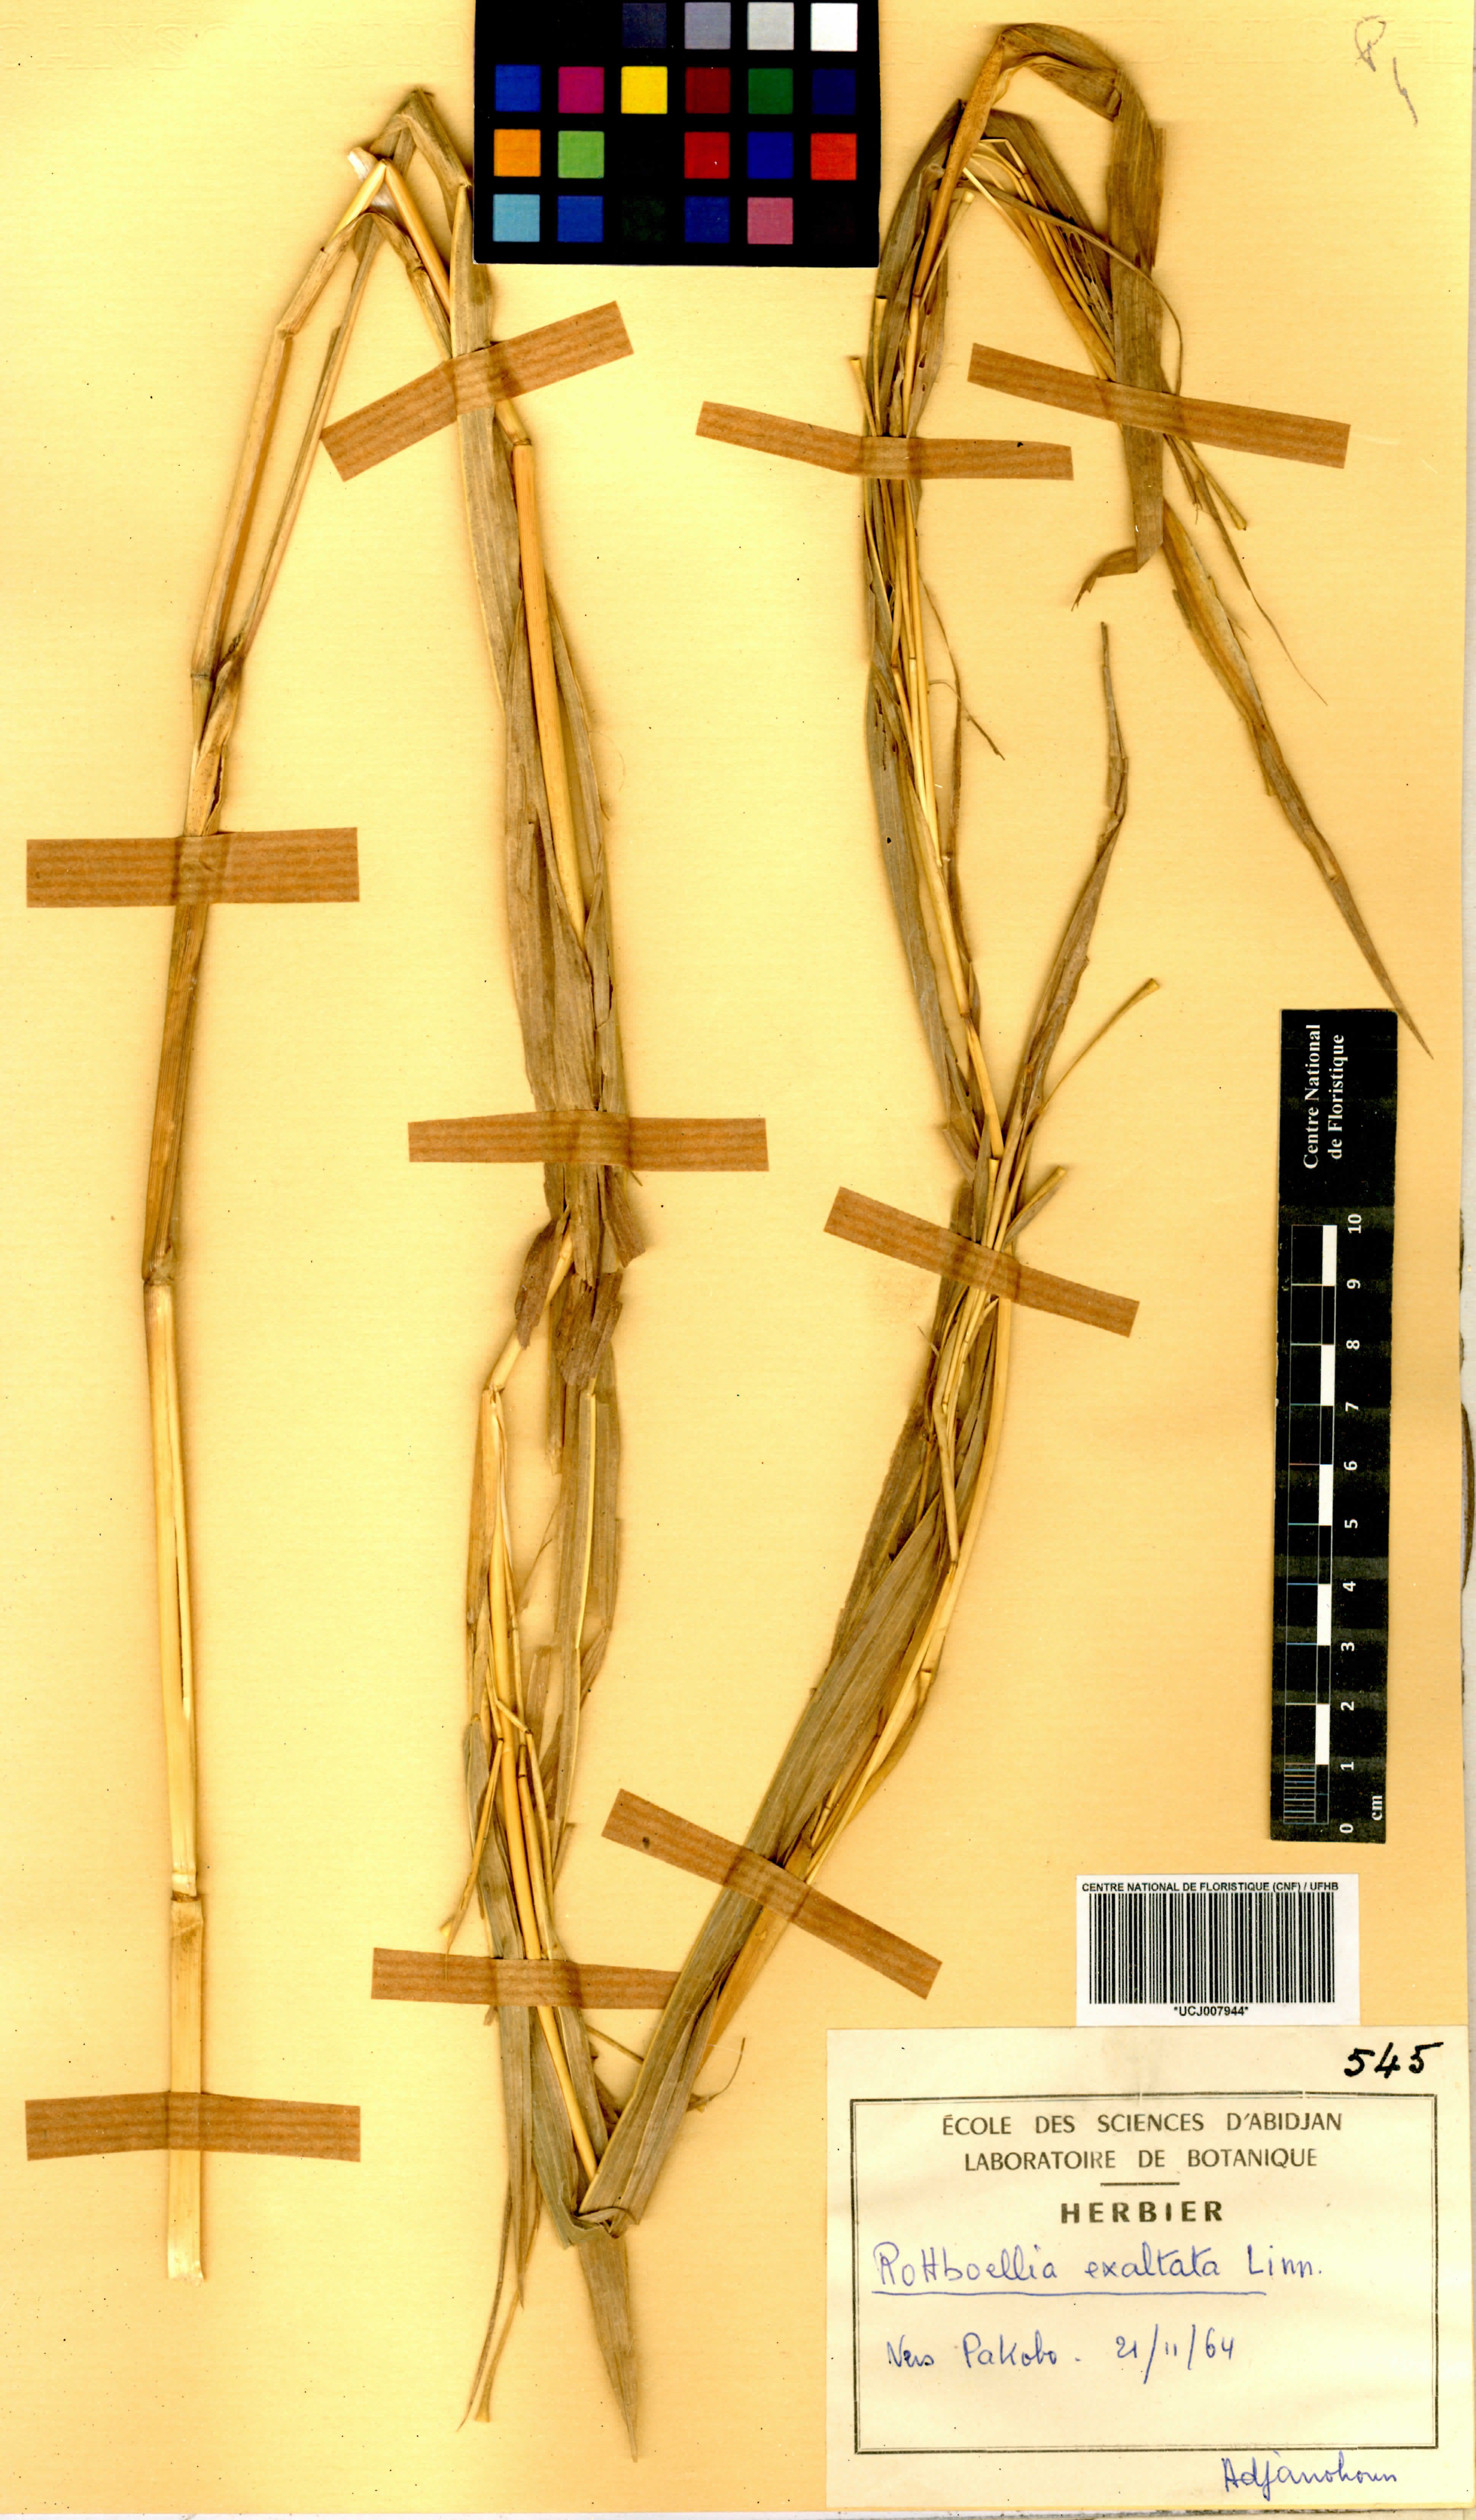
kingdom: Plantae
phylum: Tracheophyta
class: Liliopsida
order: Poales
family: Poaceae
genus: Rottboellia
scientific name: Rottboellia
